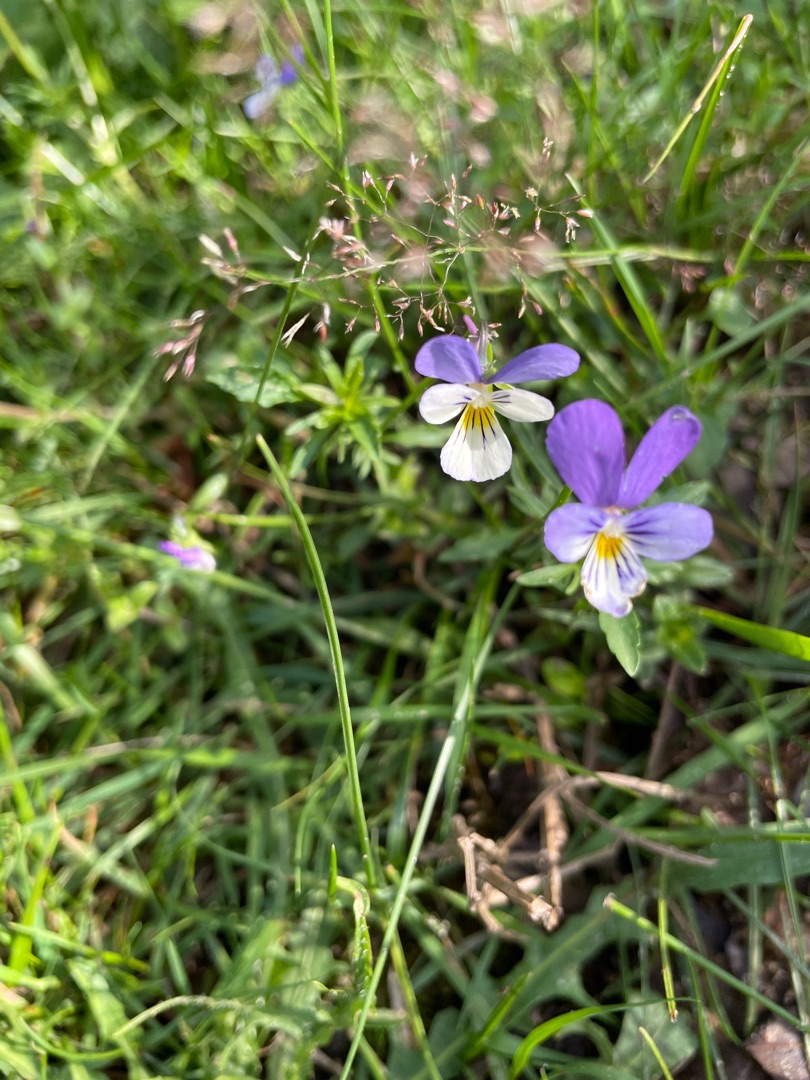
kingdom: Plantae
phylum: Tracheophyta
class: Magnoliopsida
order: Malpighiales
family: Violaceae
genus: Viola
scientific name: Viola tricolor
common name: Stedmoderblomst
